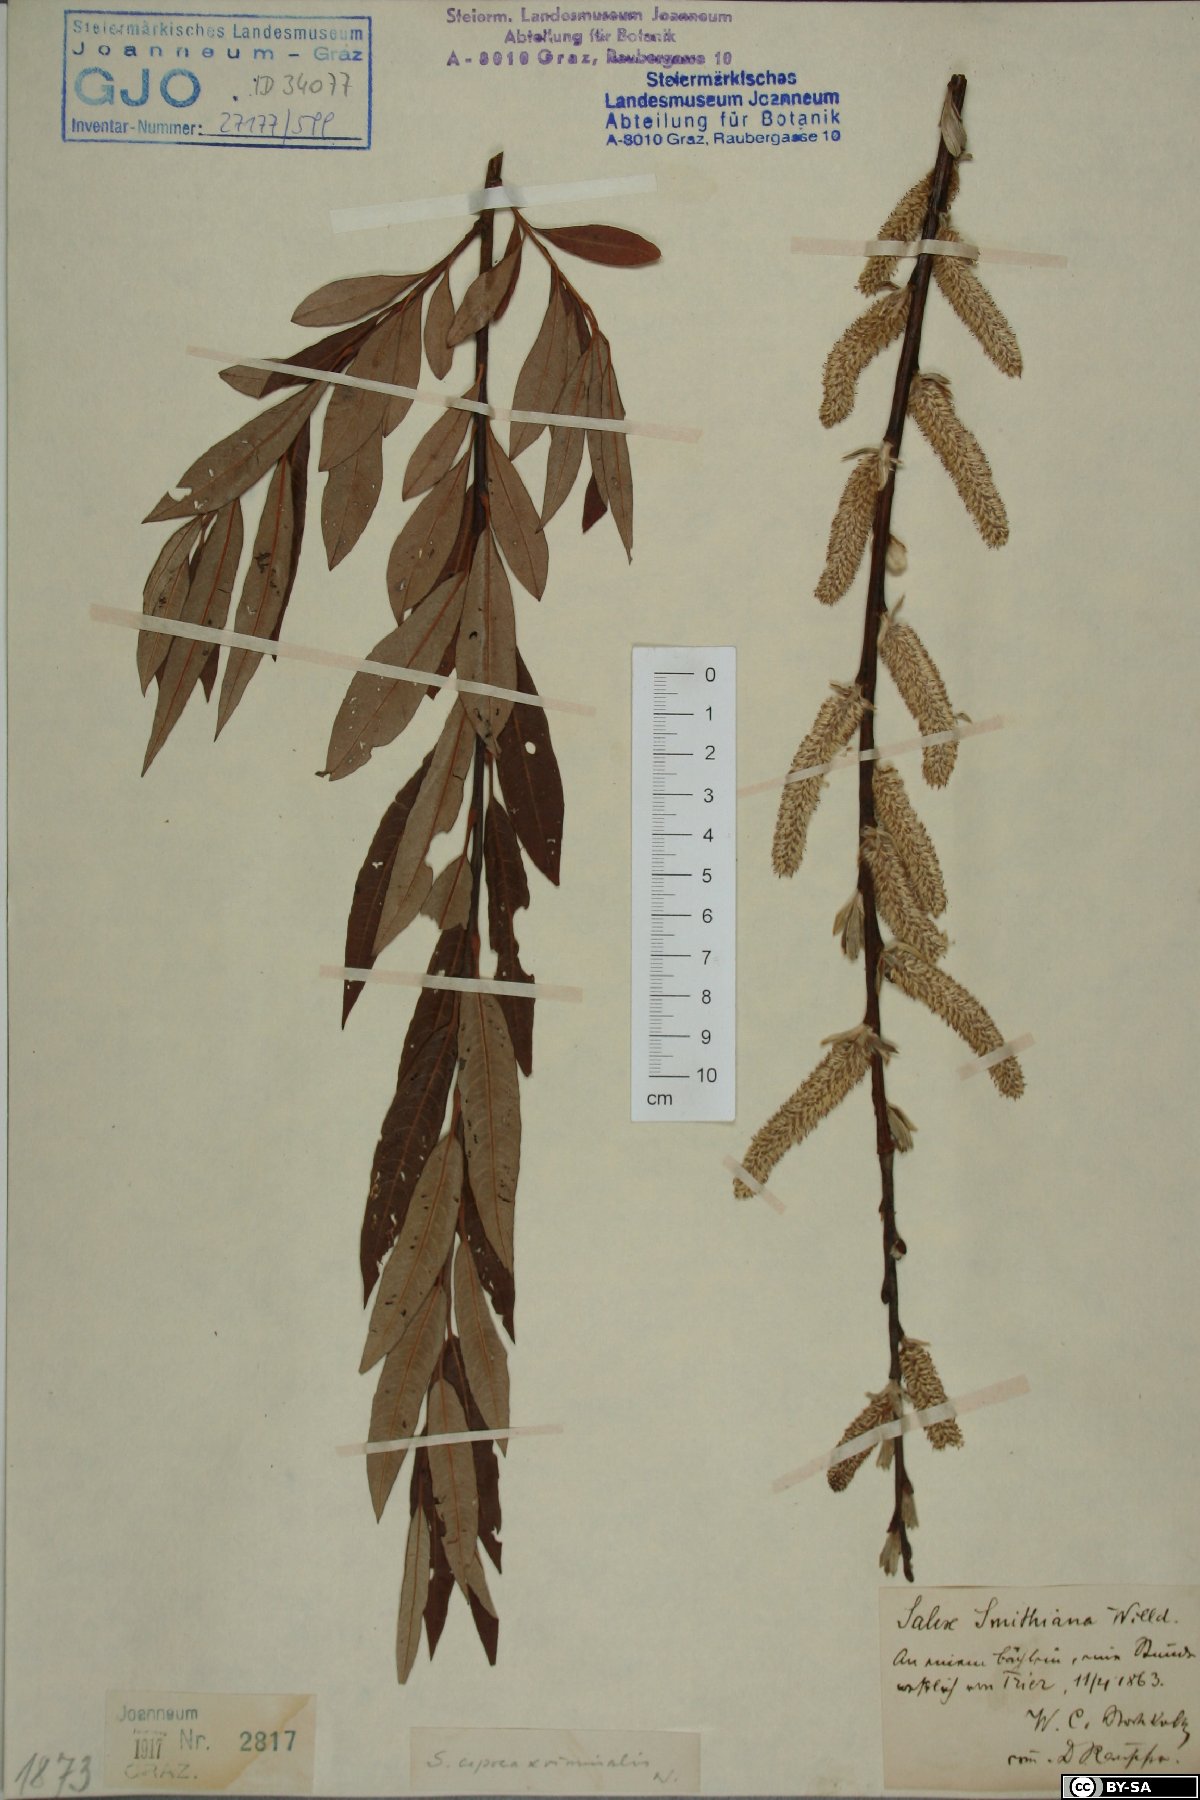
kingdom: Plantae
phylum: Tracheophyta
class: Magnoliopsida
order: Malpighiales
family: Salicaceae
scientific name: Salicaceae
